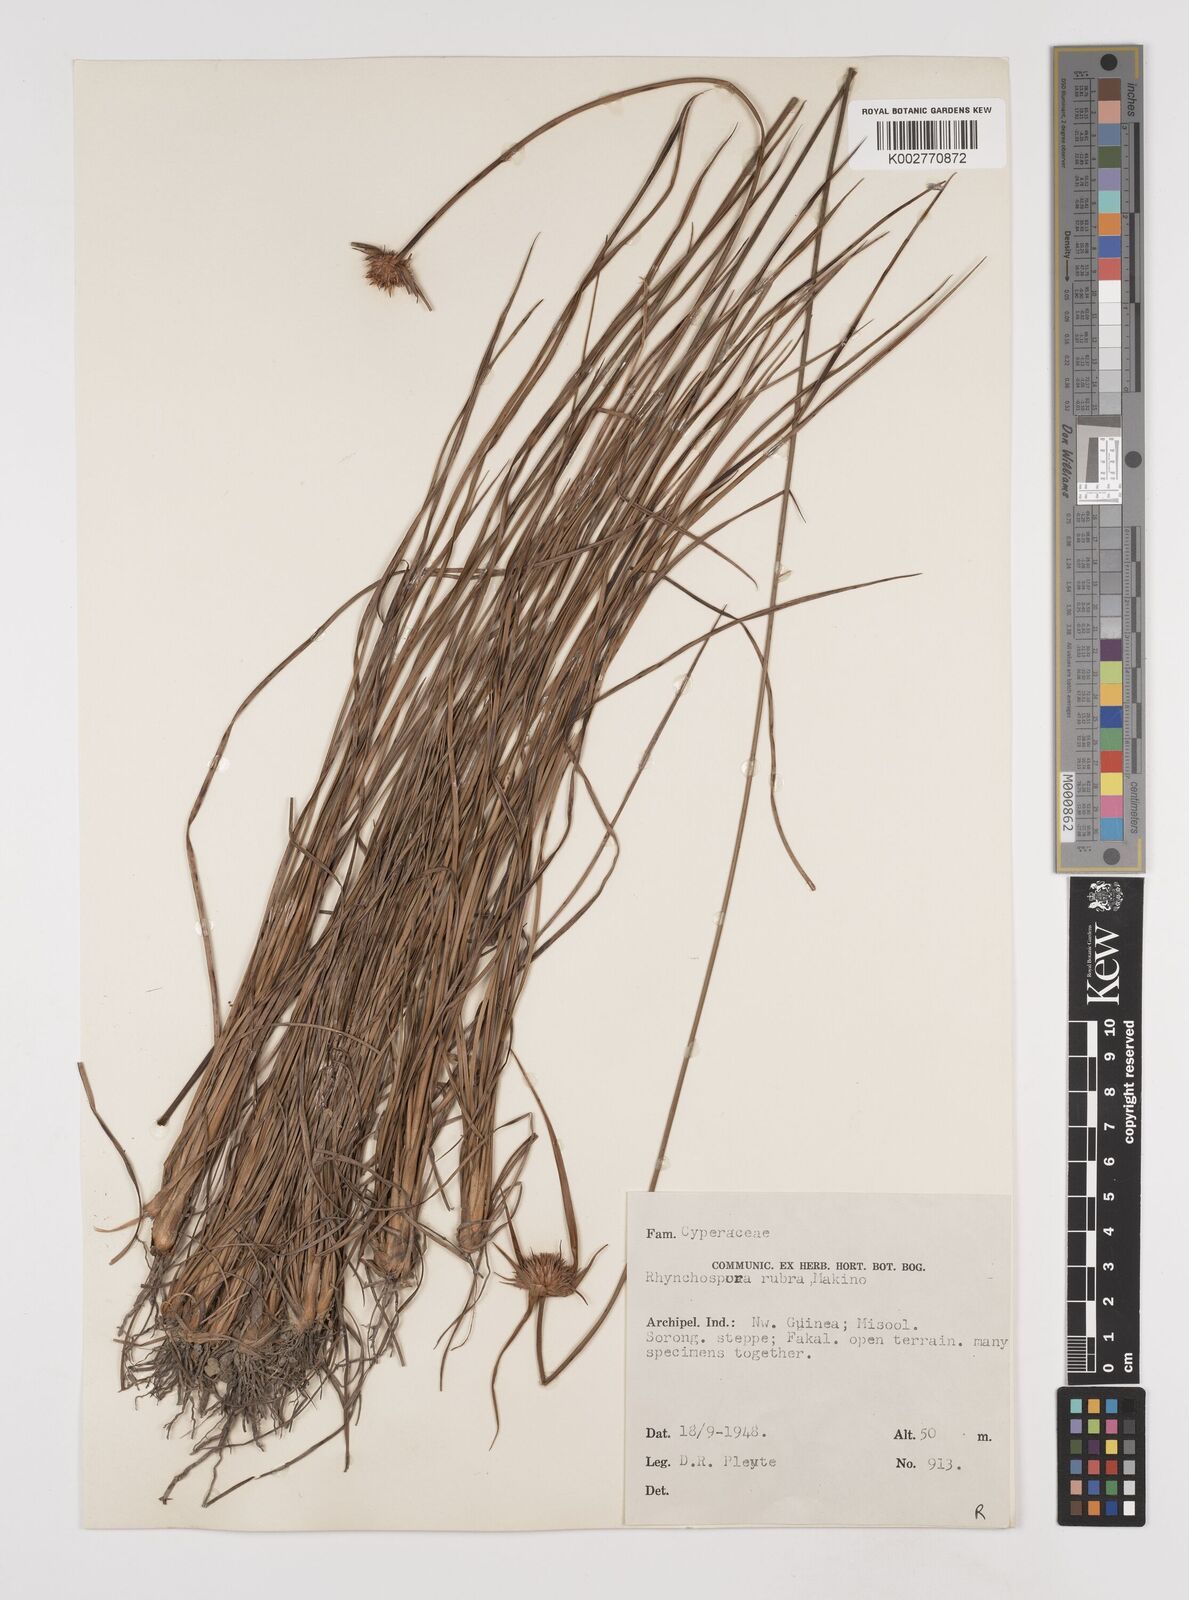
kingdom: Plantae
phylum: Tracheophyta
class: Liliopsida
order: Poales
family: Cyperaceae
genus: Rhynchospora
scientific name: Rhynchospora rubra
